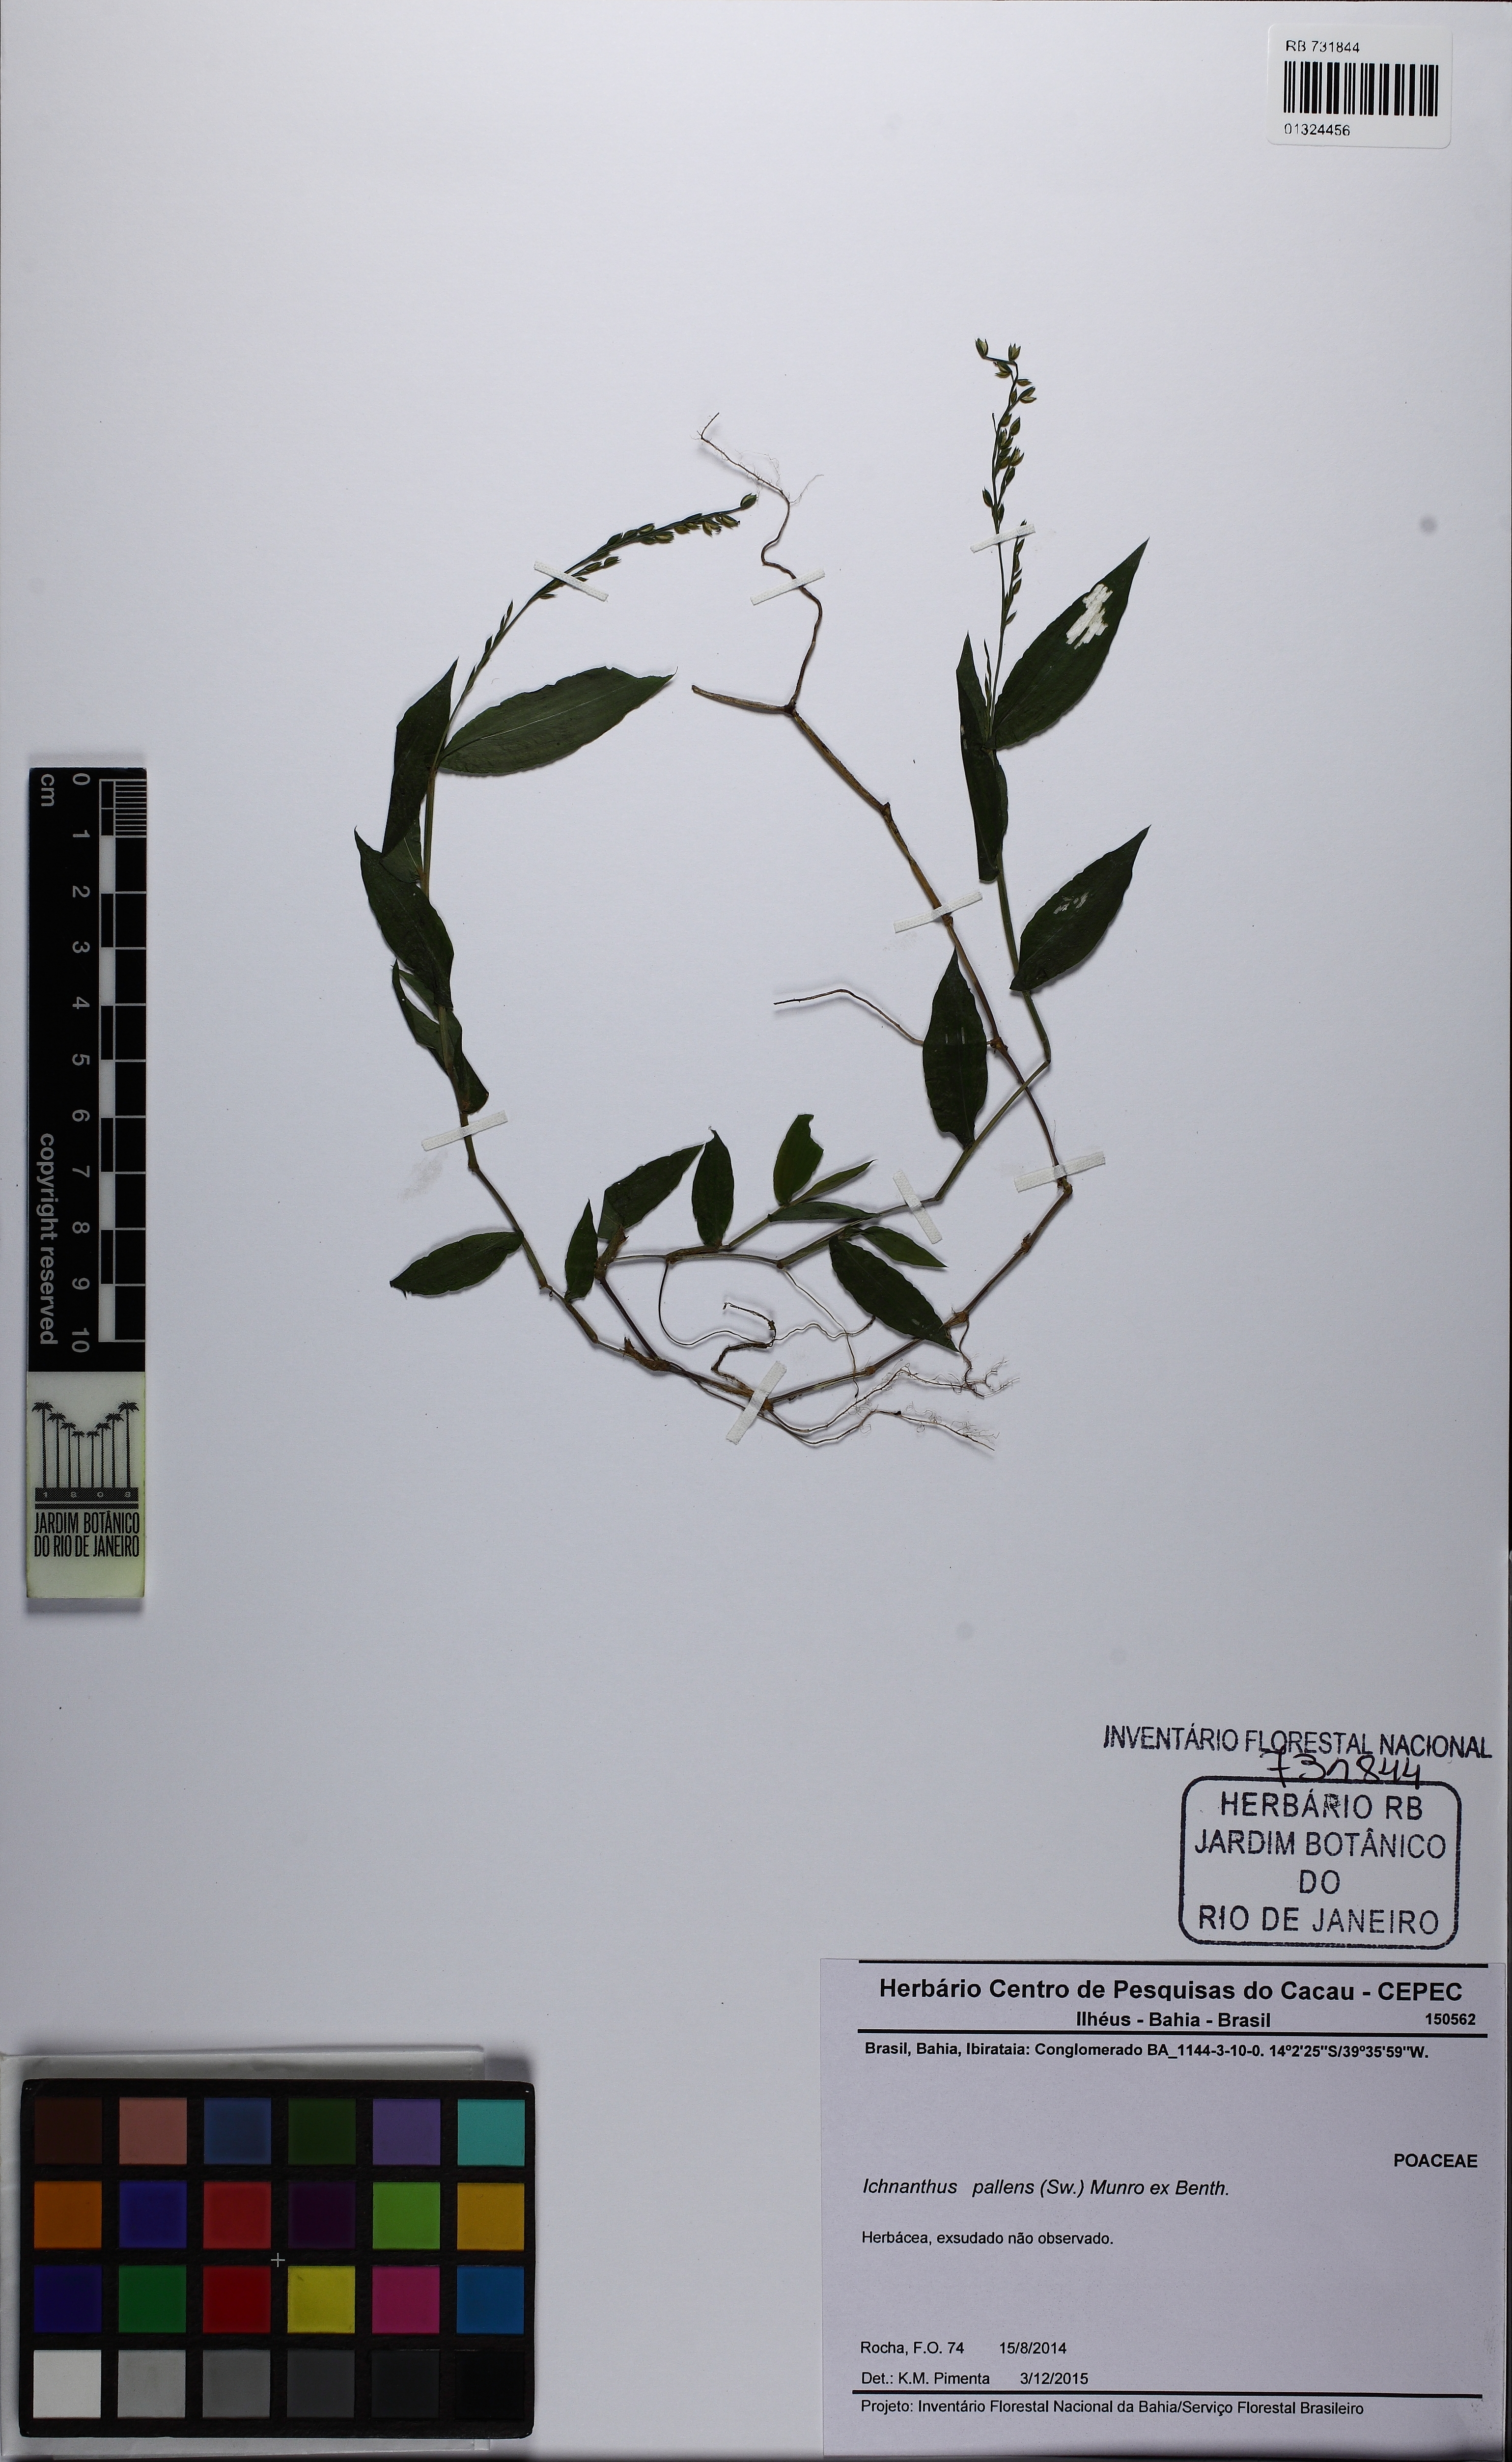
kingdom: Plantae
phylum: Tracheophyta
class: Liliopsida
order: Poales
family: Poaceae
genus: Ichnanthus
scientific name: Ichnanthus pallens
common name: Water grass
